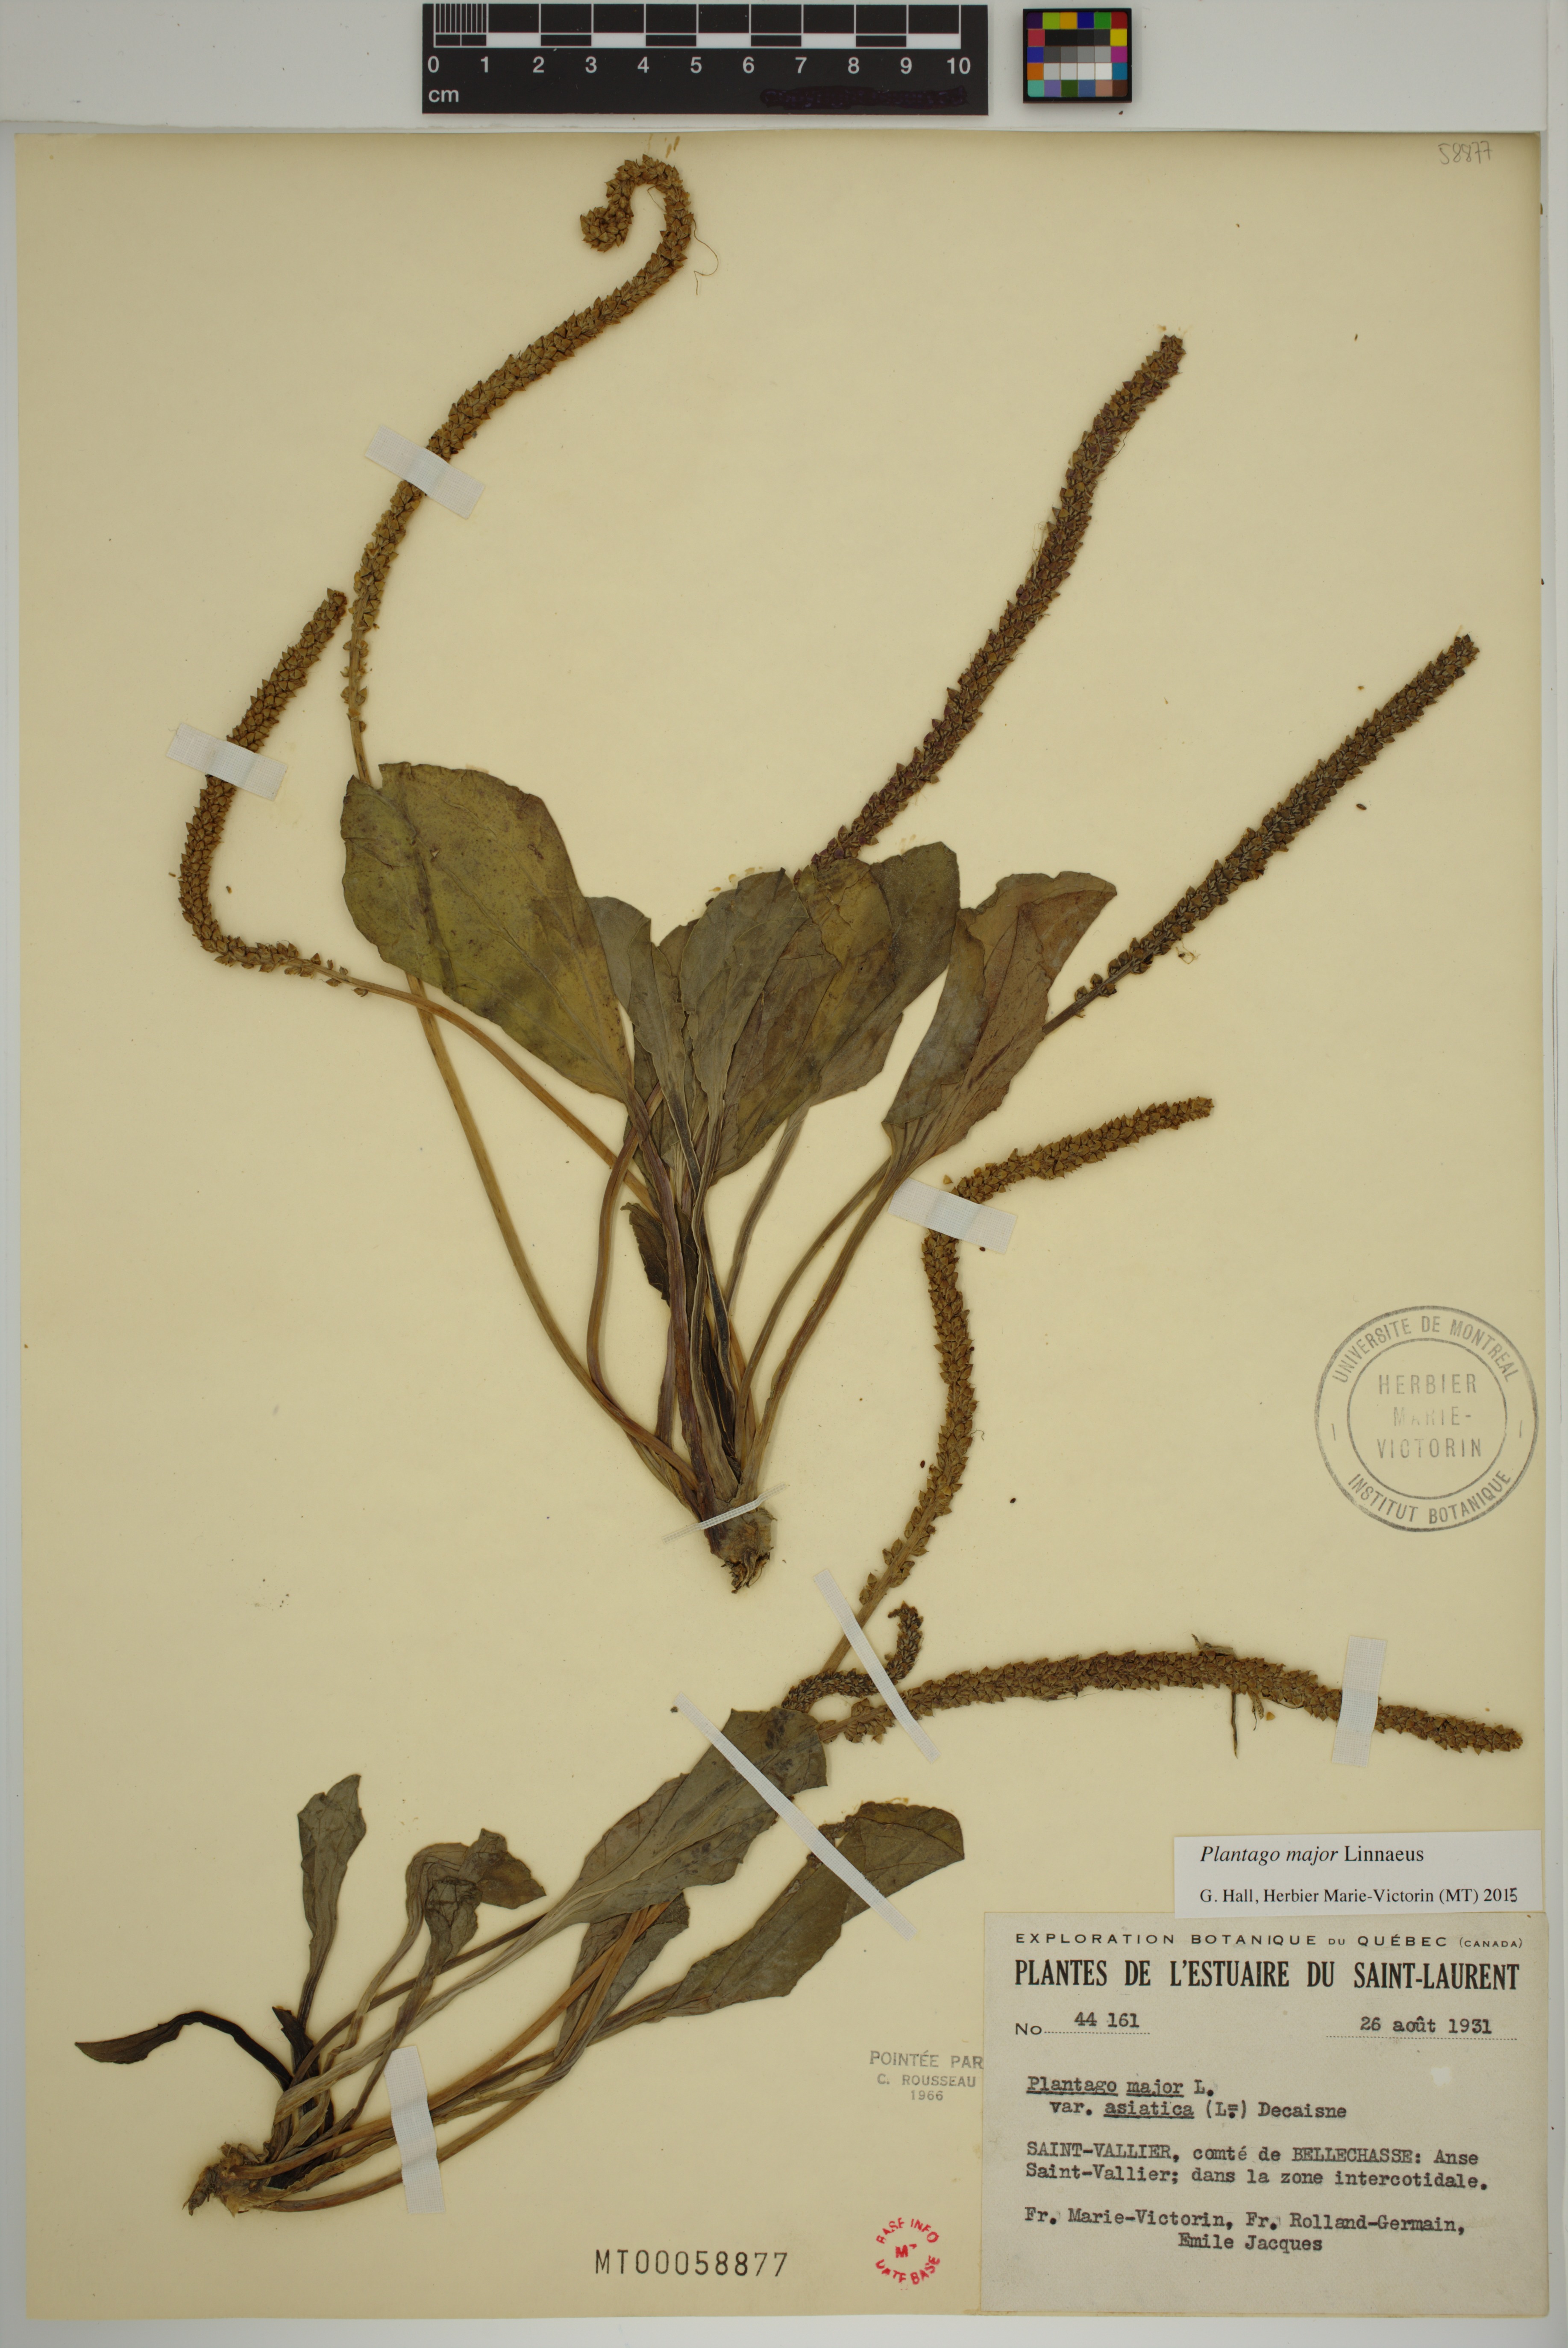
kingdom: Plantae
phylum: Tracheophyta
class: Magnoliopsida
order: Lamiales
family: Plantaginaceae
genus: Plantago
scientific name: Plantago major
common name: Common plantain
